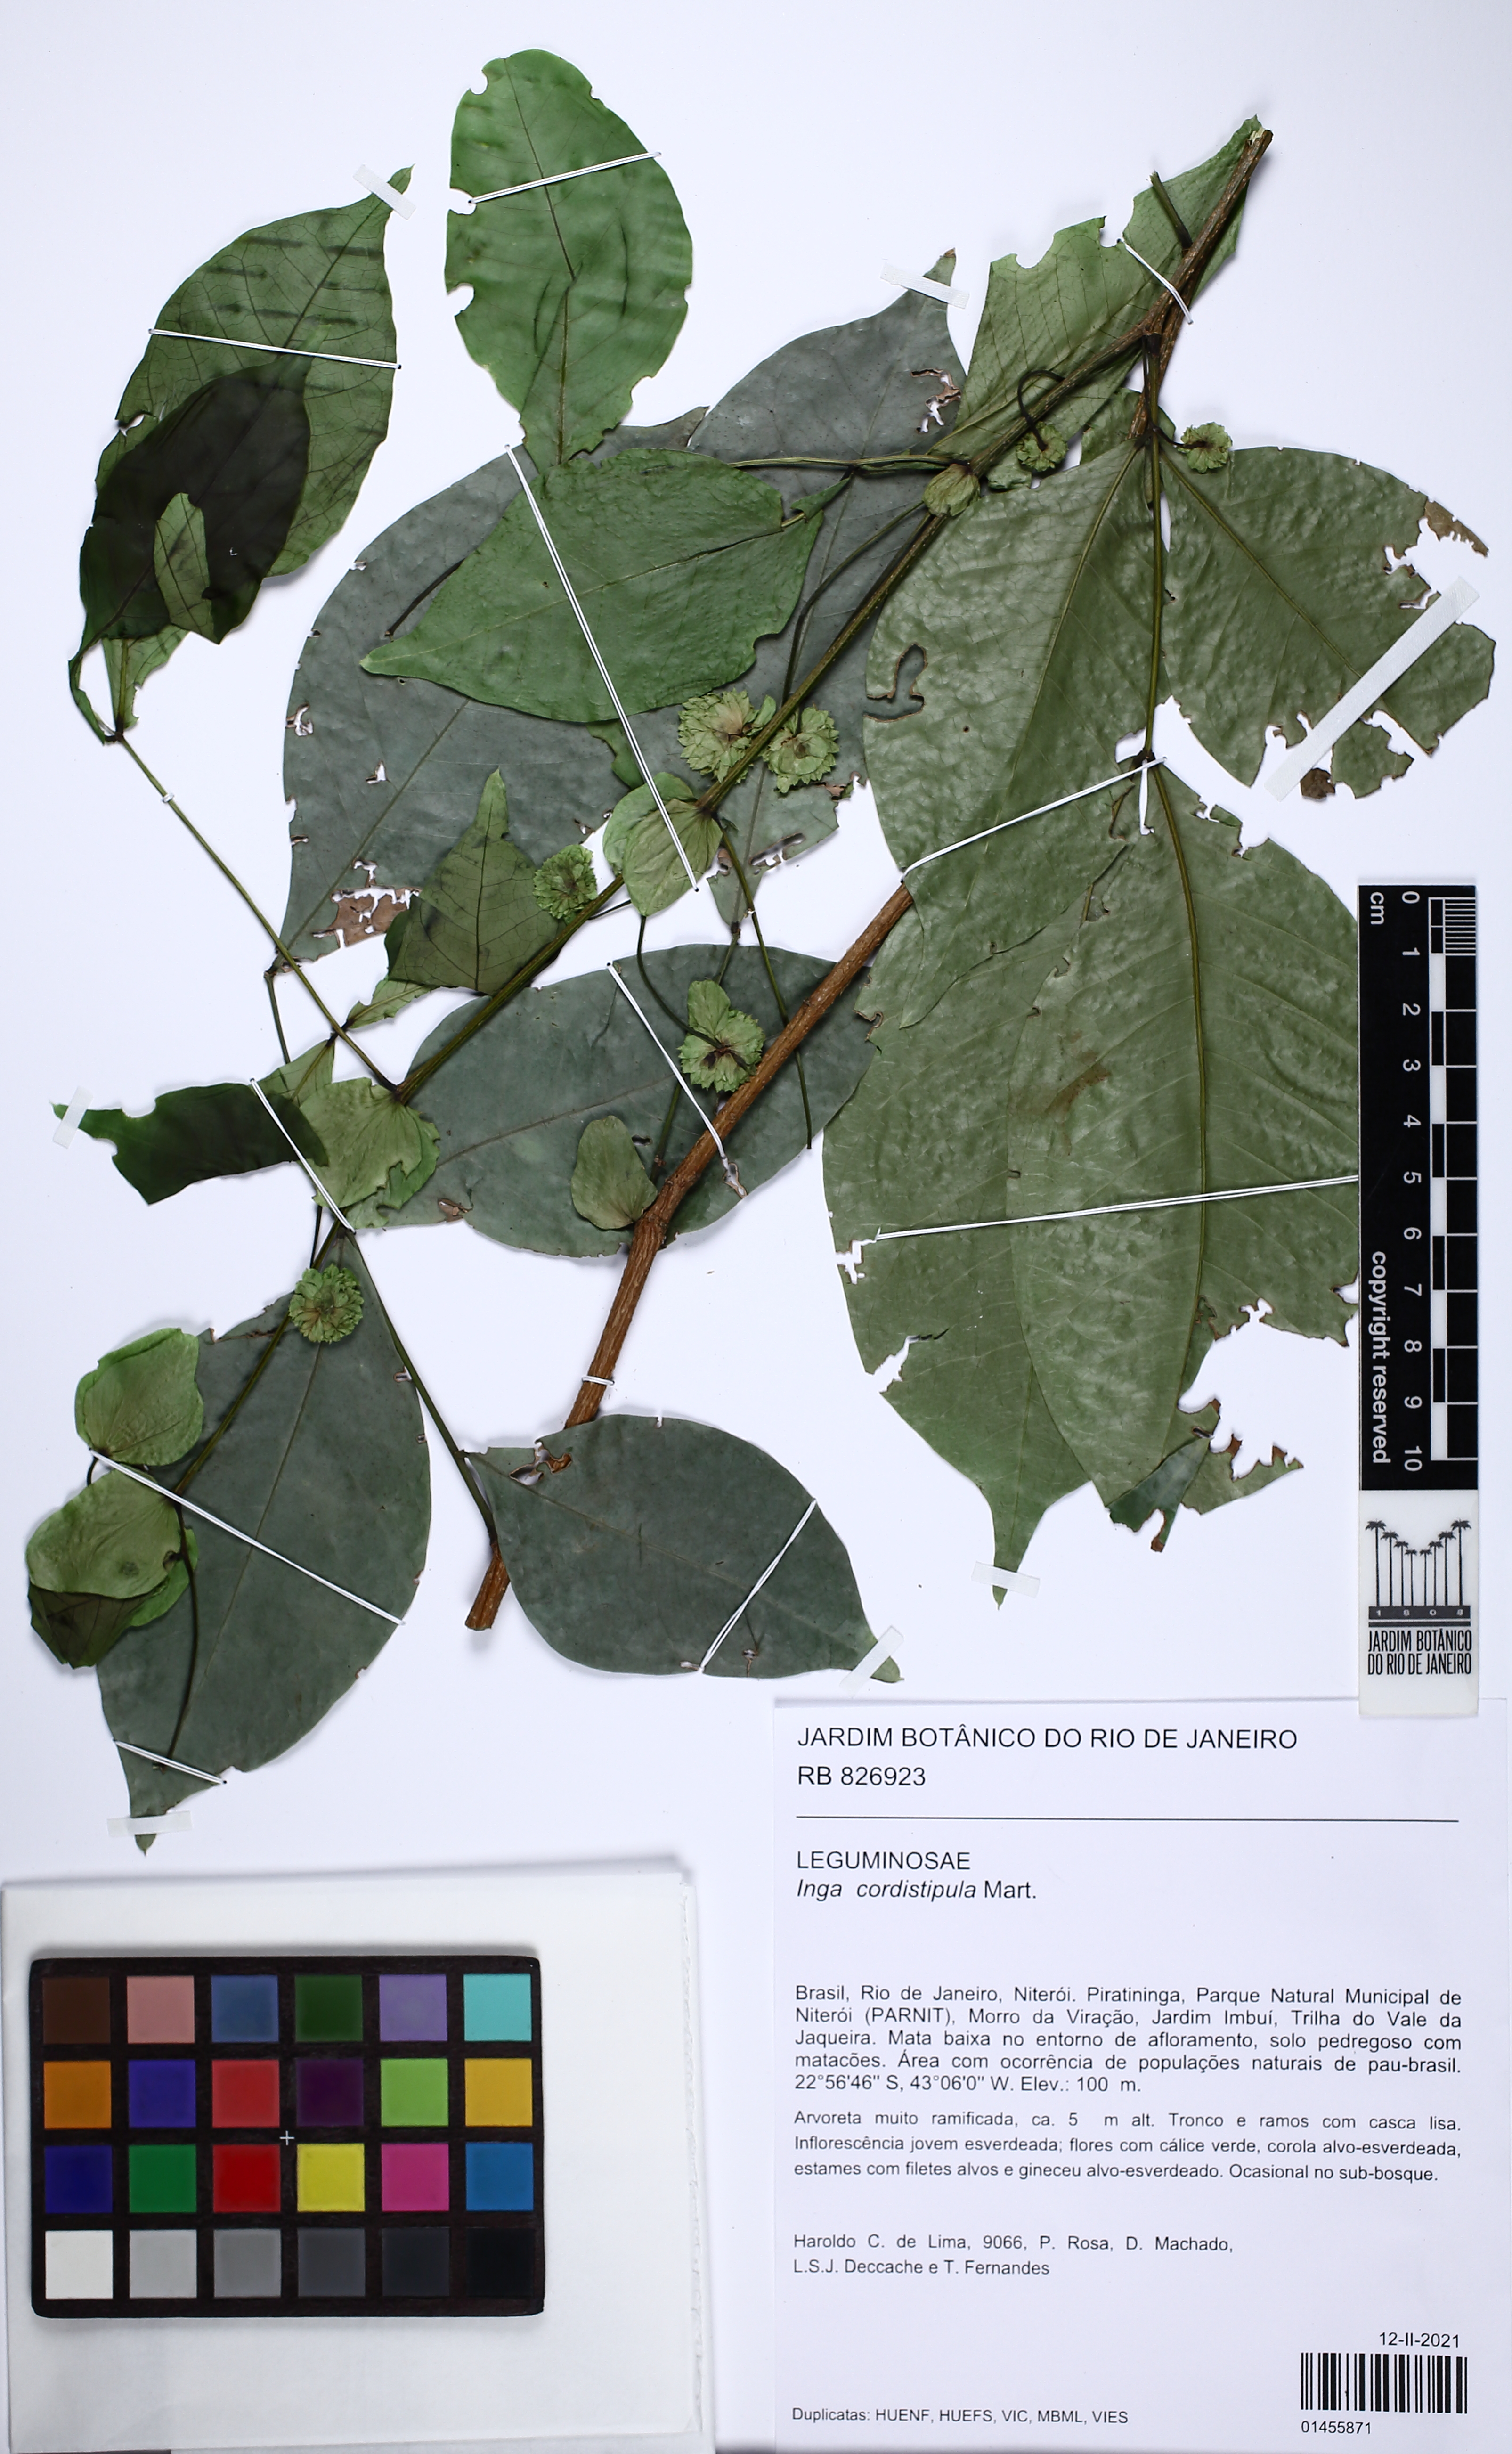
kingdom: Plantae
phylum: Tracheophyta
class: Magnoliopsida
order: Fabales
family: Fabaceae
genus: Inga
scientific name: Inga cordistipula
